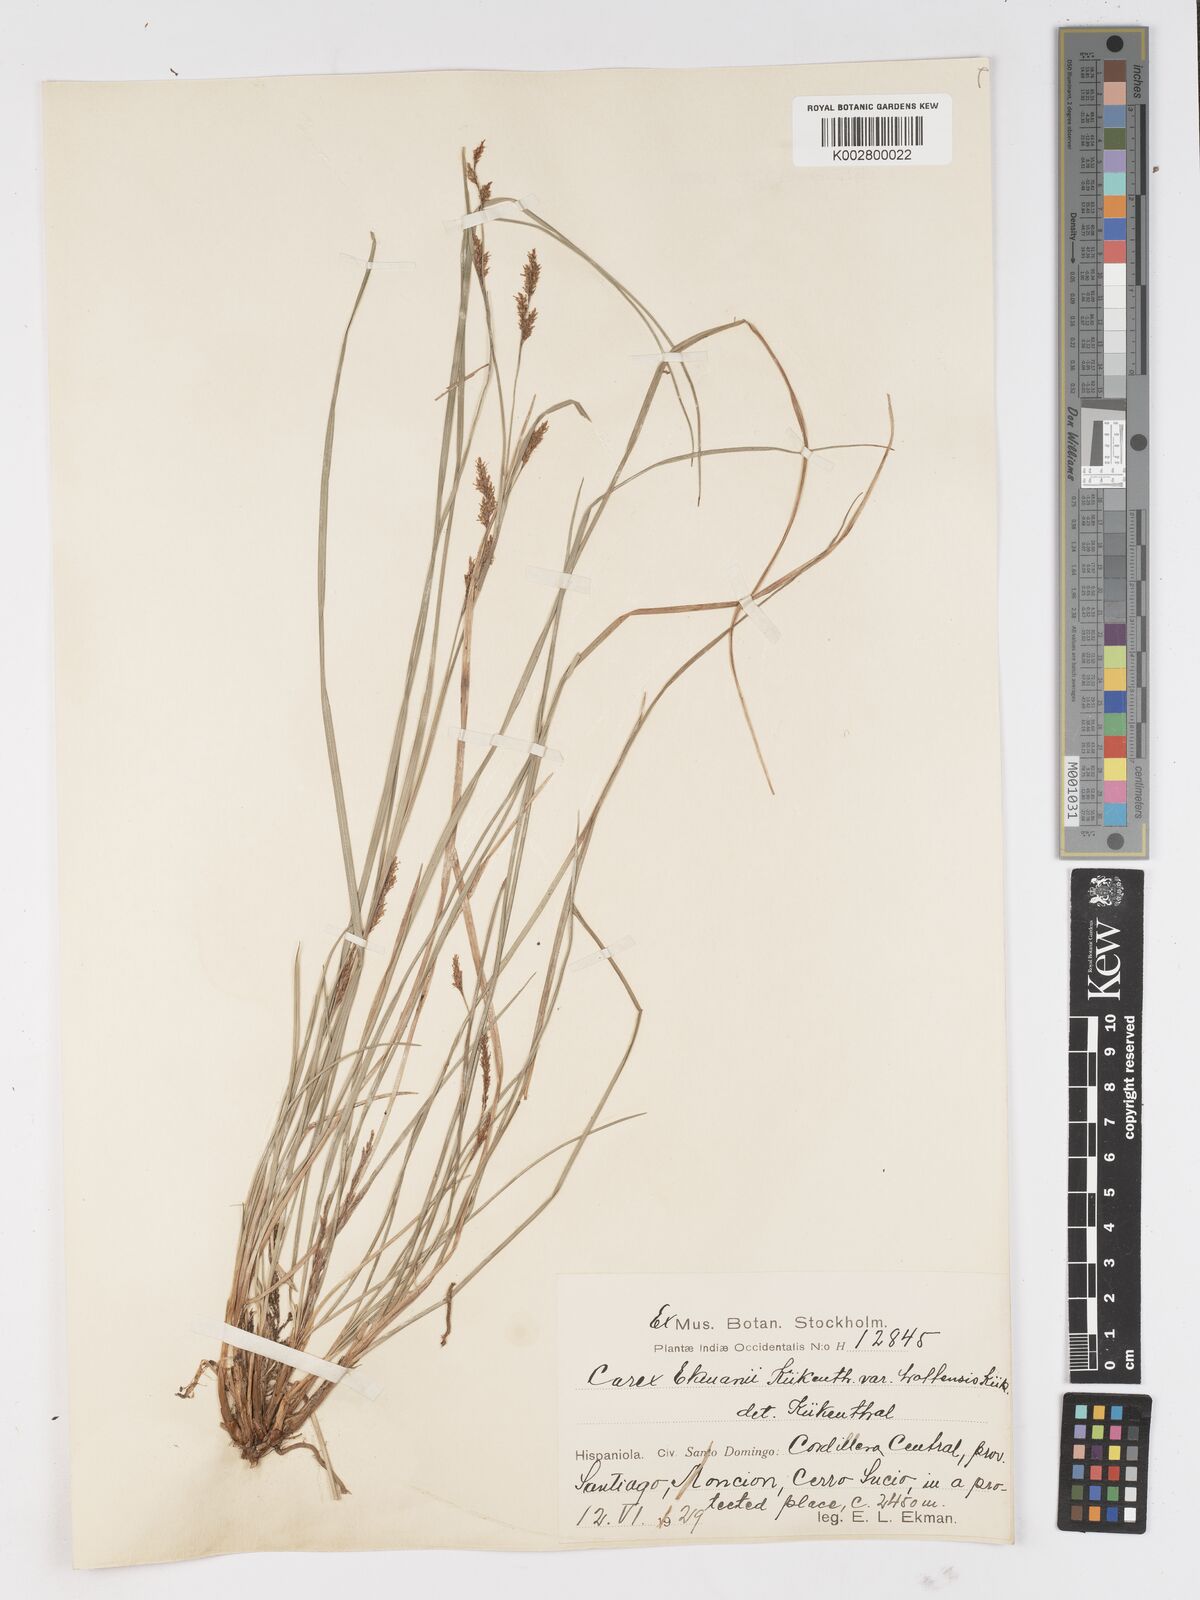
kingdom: Plantae
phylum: Tracheophyta
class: Liliopsida
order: Poales
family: Cyperaceae
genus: Carex
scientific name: Carex ekmanii
